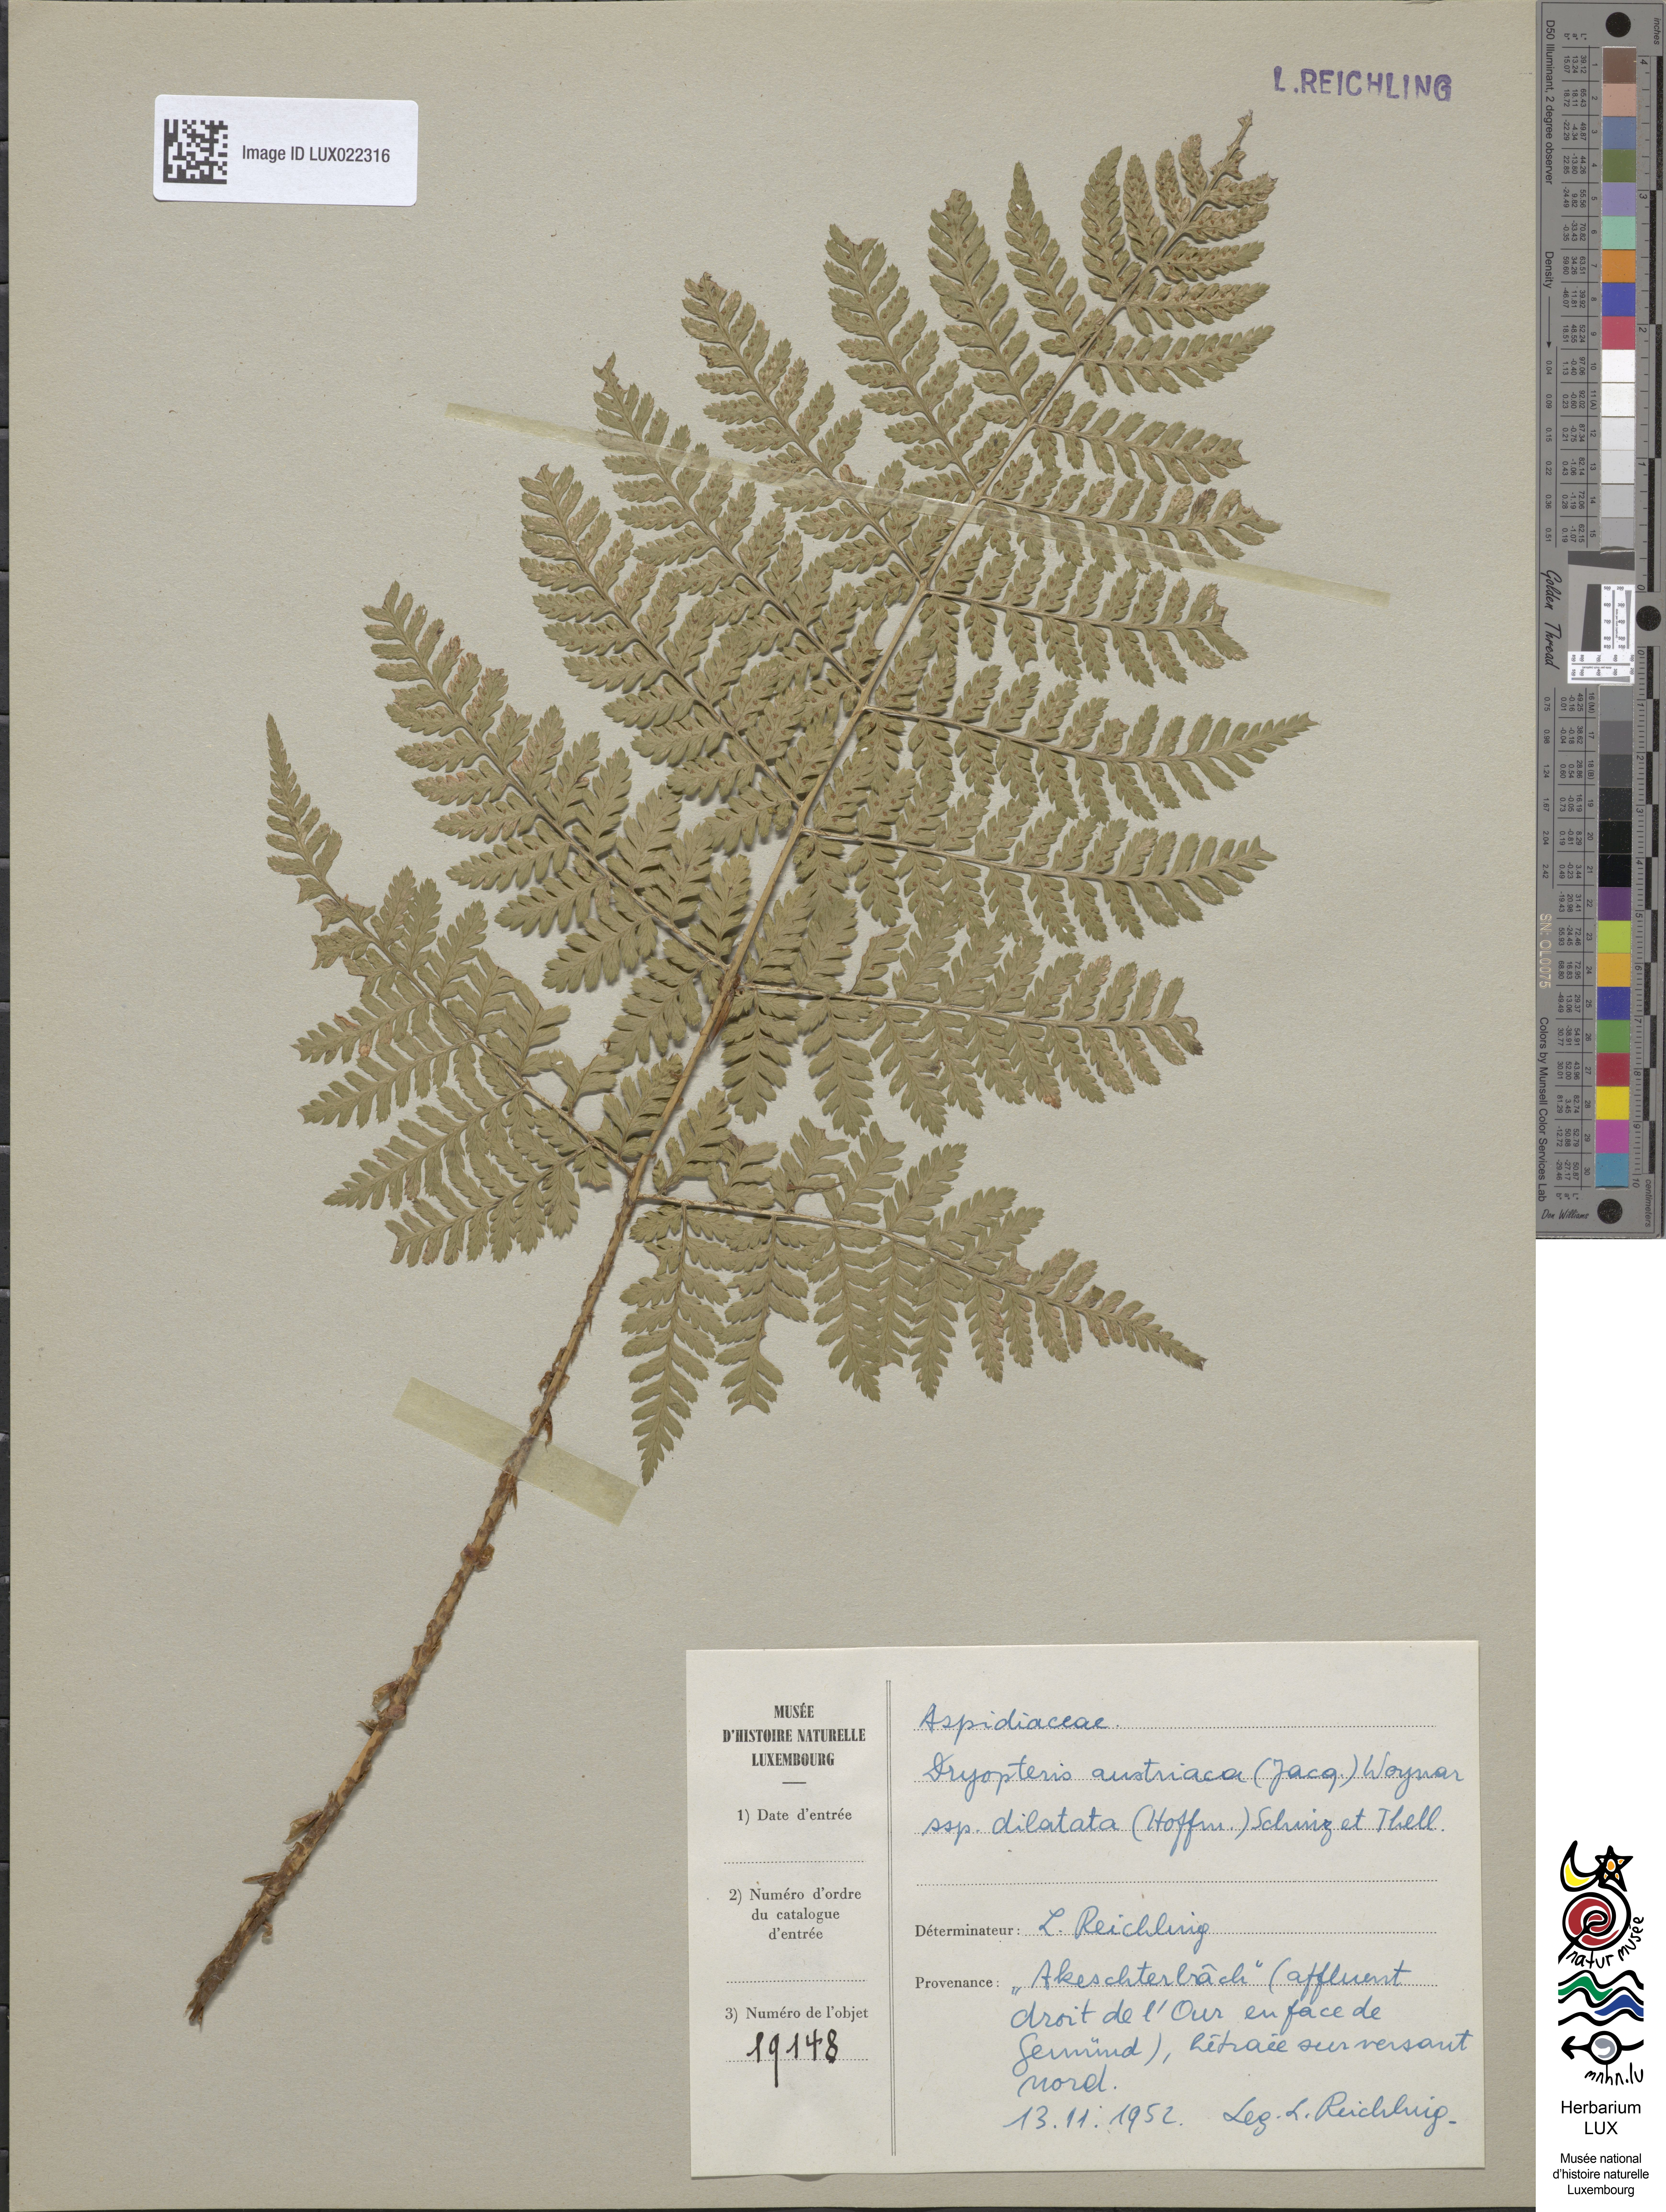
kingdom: Plantae
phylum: Tracheophyta
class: Polypodiopsida
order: Polypodiales
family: Dryopteridaceae
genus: Dryopteris
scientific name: Dryopteris dilatata
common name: Broad buckler-fern
